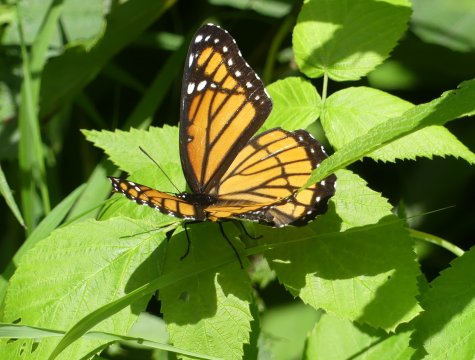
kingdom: Animalia
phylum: Arthropoda
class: Insecta
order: Lepidoptera
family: Nymphalidae
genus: Limenitis
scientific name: Limenitis archippus
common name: Viceroy
